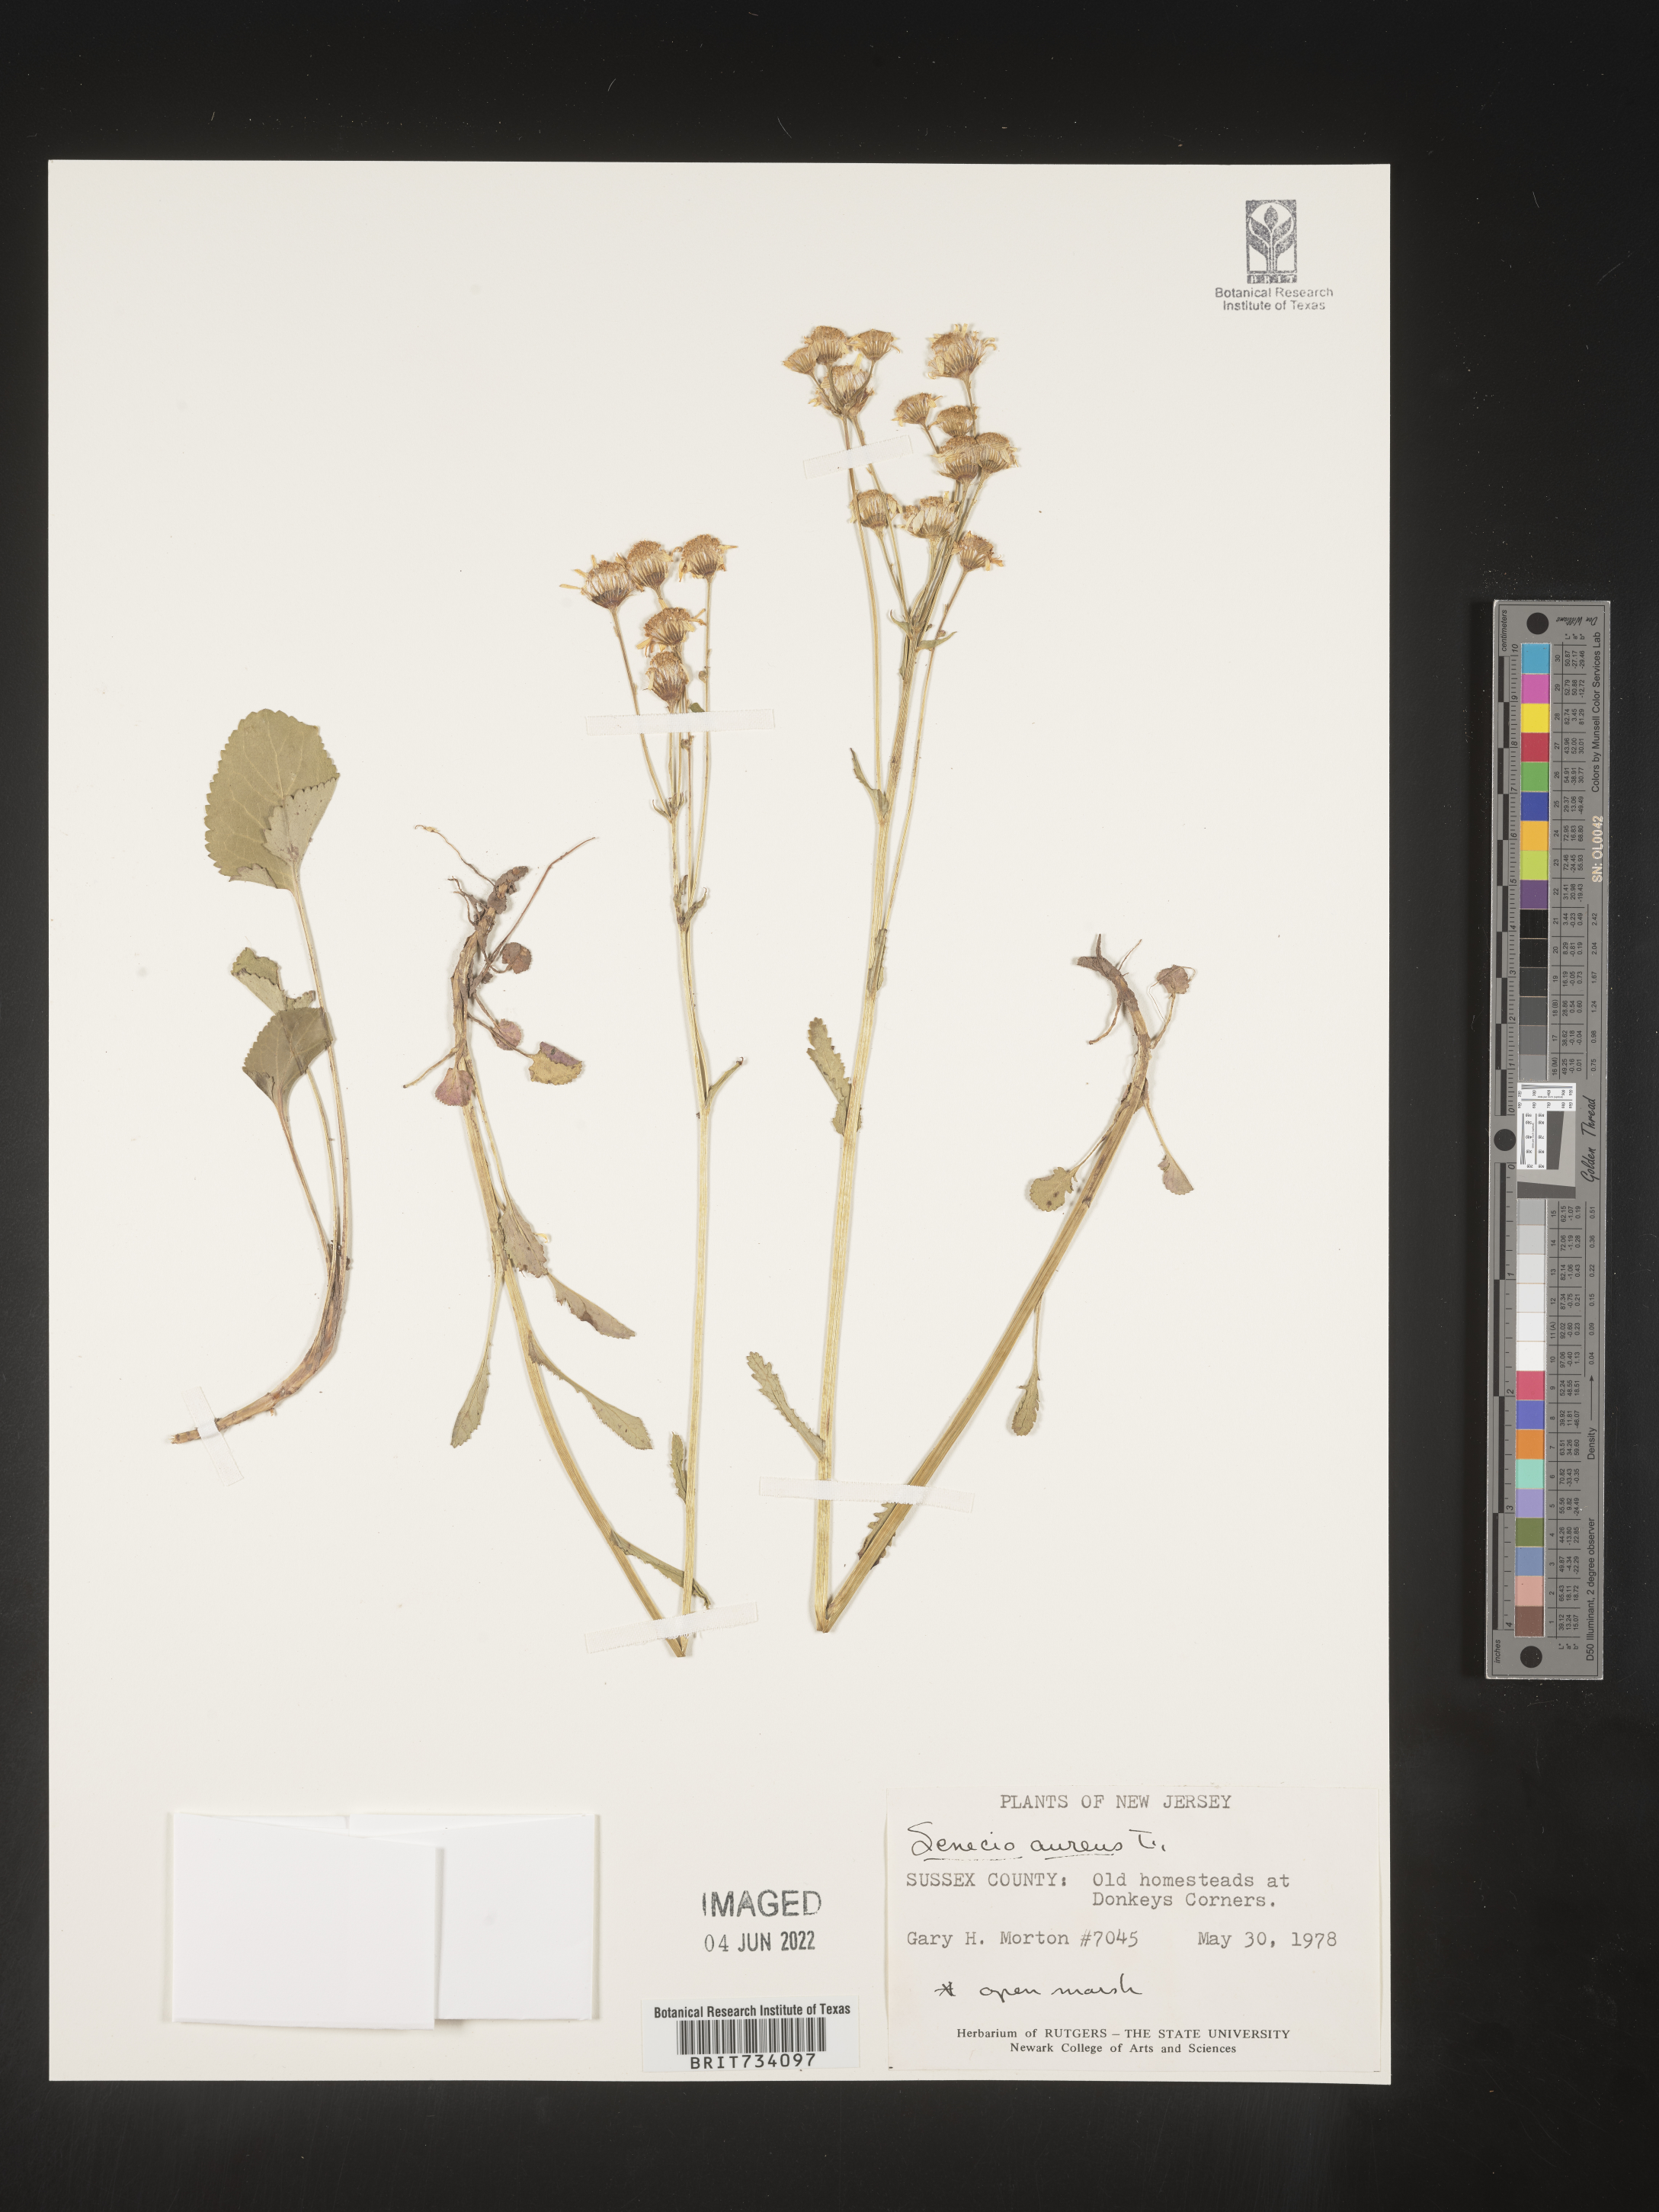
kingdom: Plantae
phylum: Tracheophyta
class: Magnoliopsida
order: Asterales
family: Asteraceae
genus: Packera
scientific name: Packera aurea
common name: Golden groundsel
